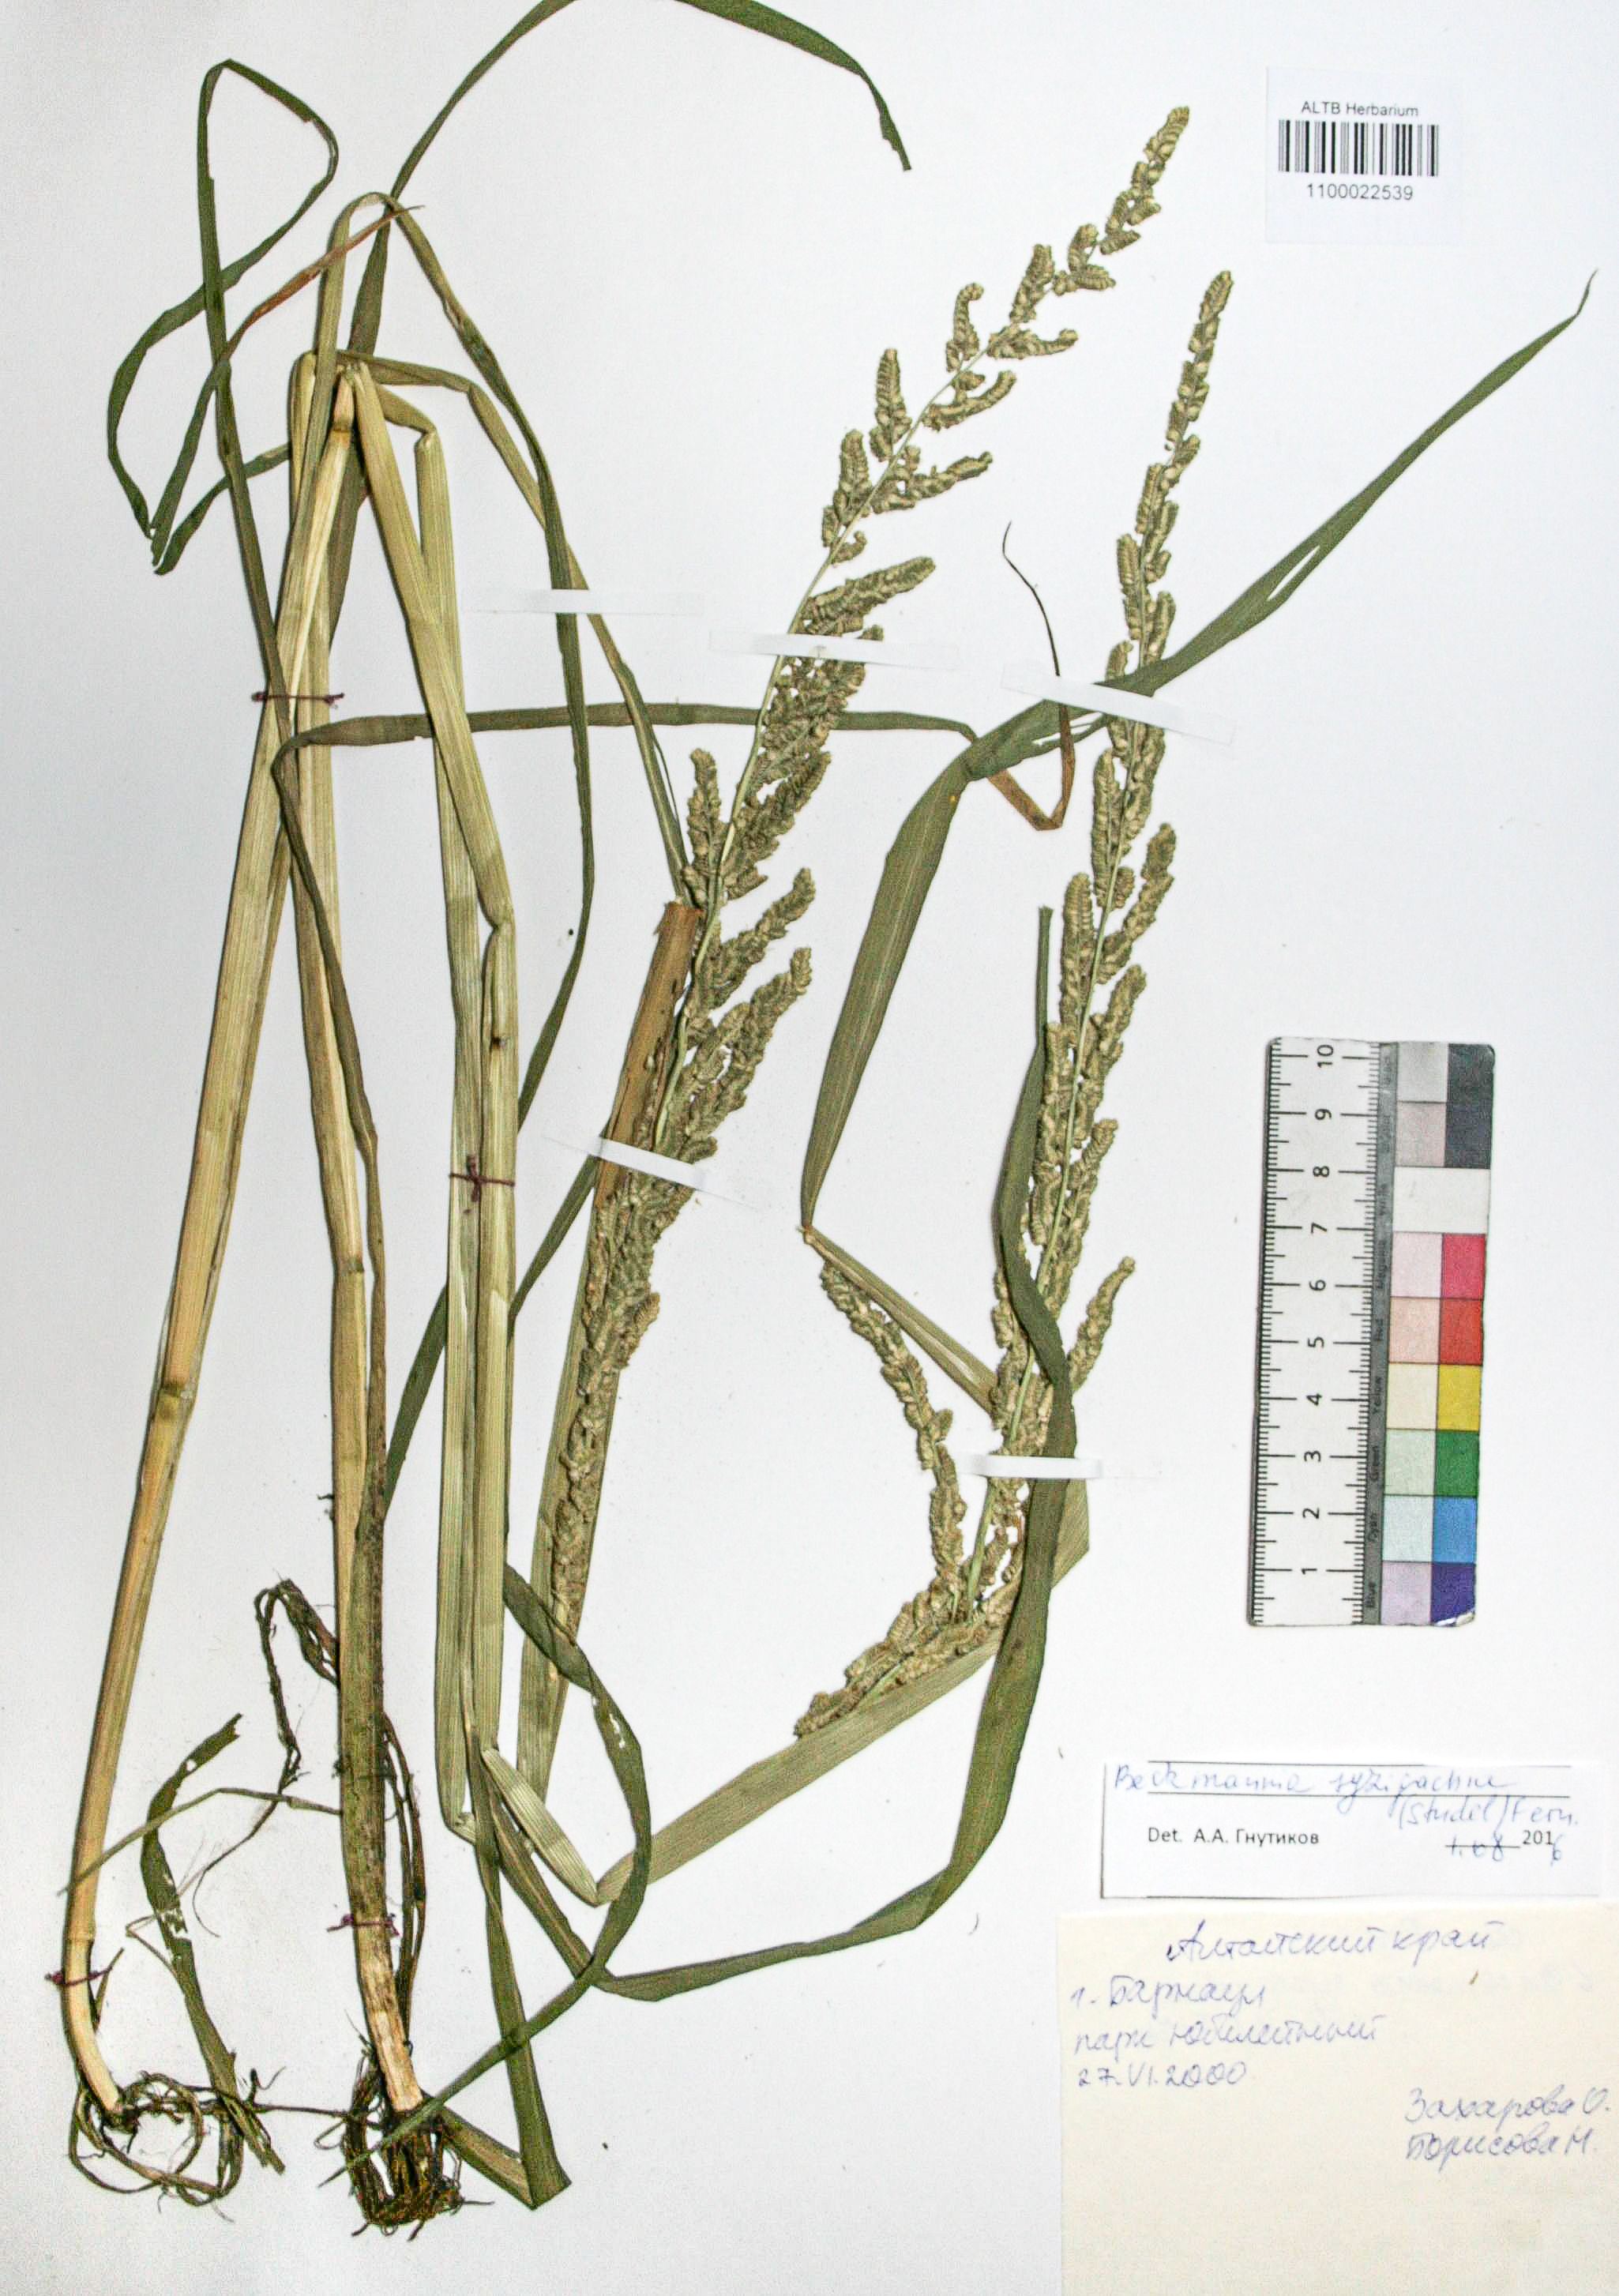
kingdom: Plantae
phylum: Tracheophyta
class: Liliopsida
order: Poales
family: Poaceae
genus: Beckmannia
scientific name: Beckmannia syzigachne
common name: American slough-grass
